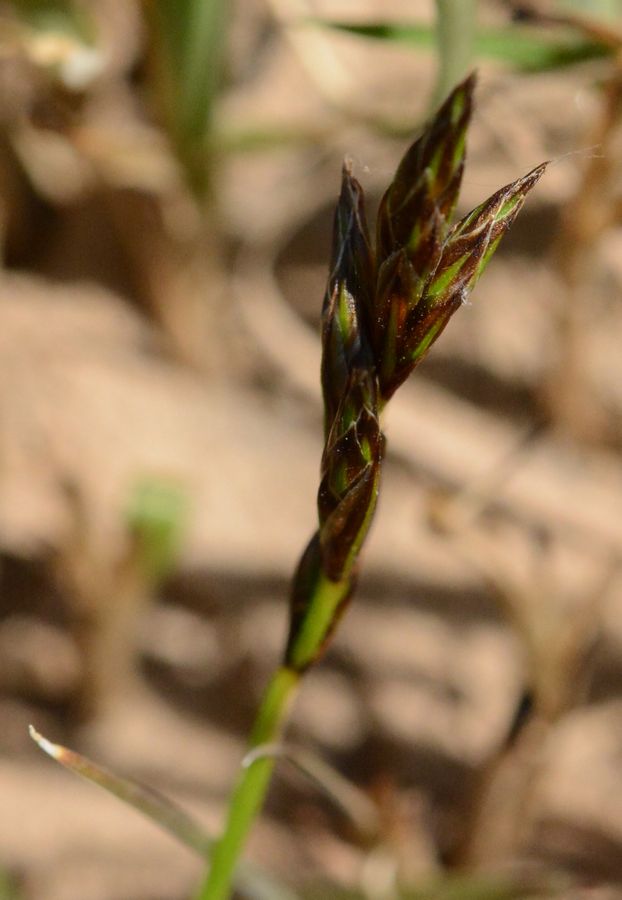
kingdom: Plantae
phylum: Tracheophyta
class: Liliopsida
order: Poales
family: Cyperaceae
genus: Carex
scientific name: Carex
